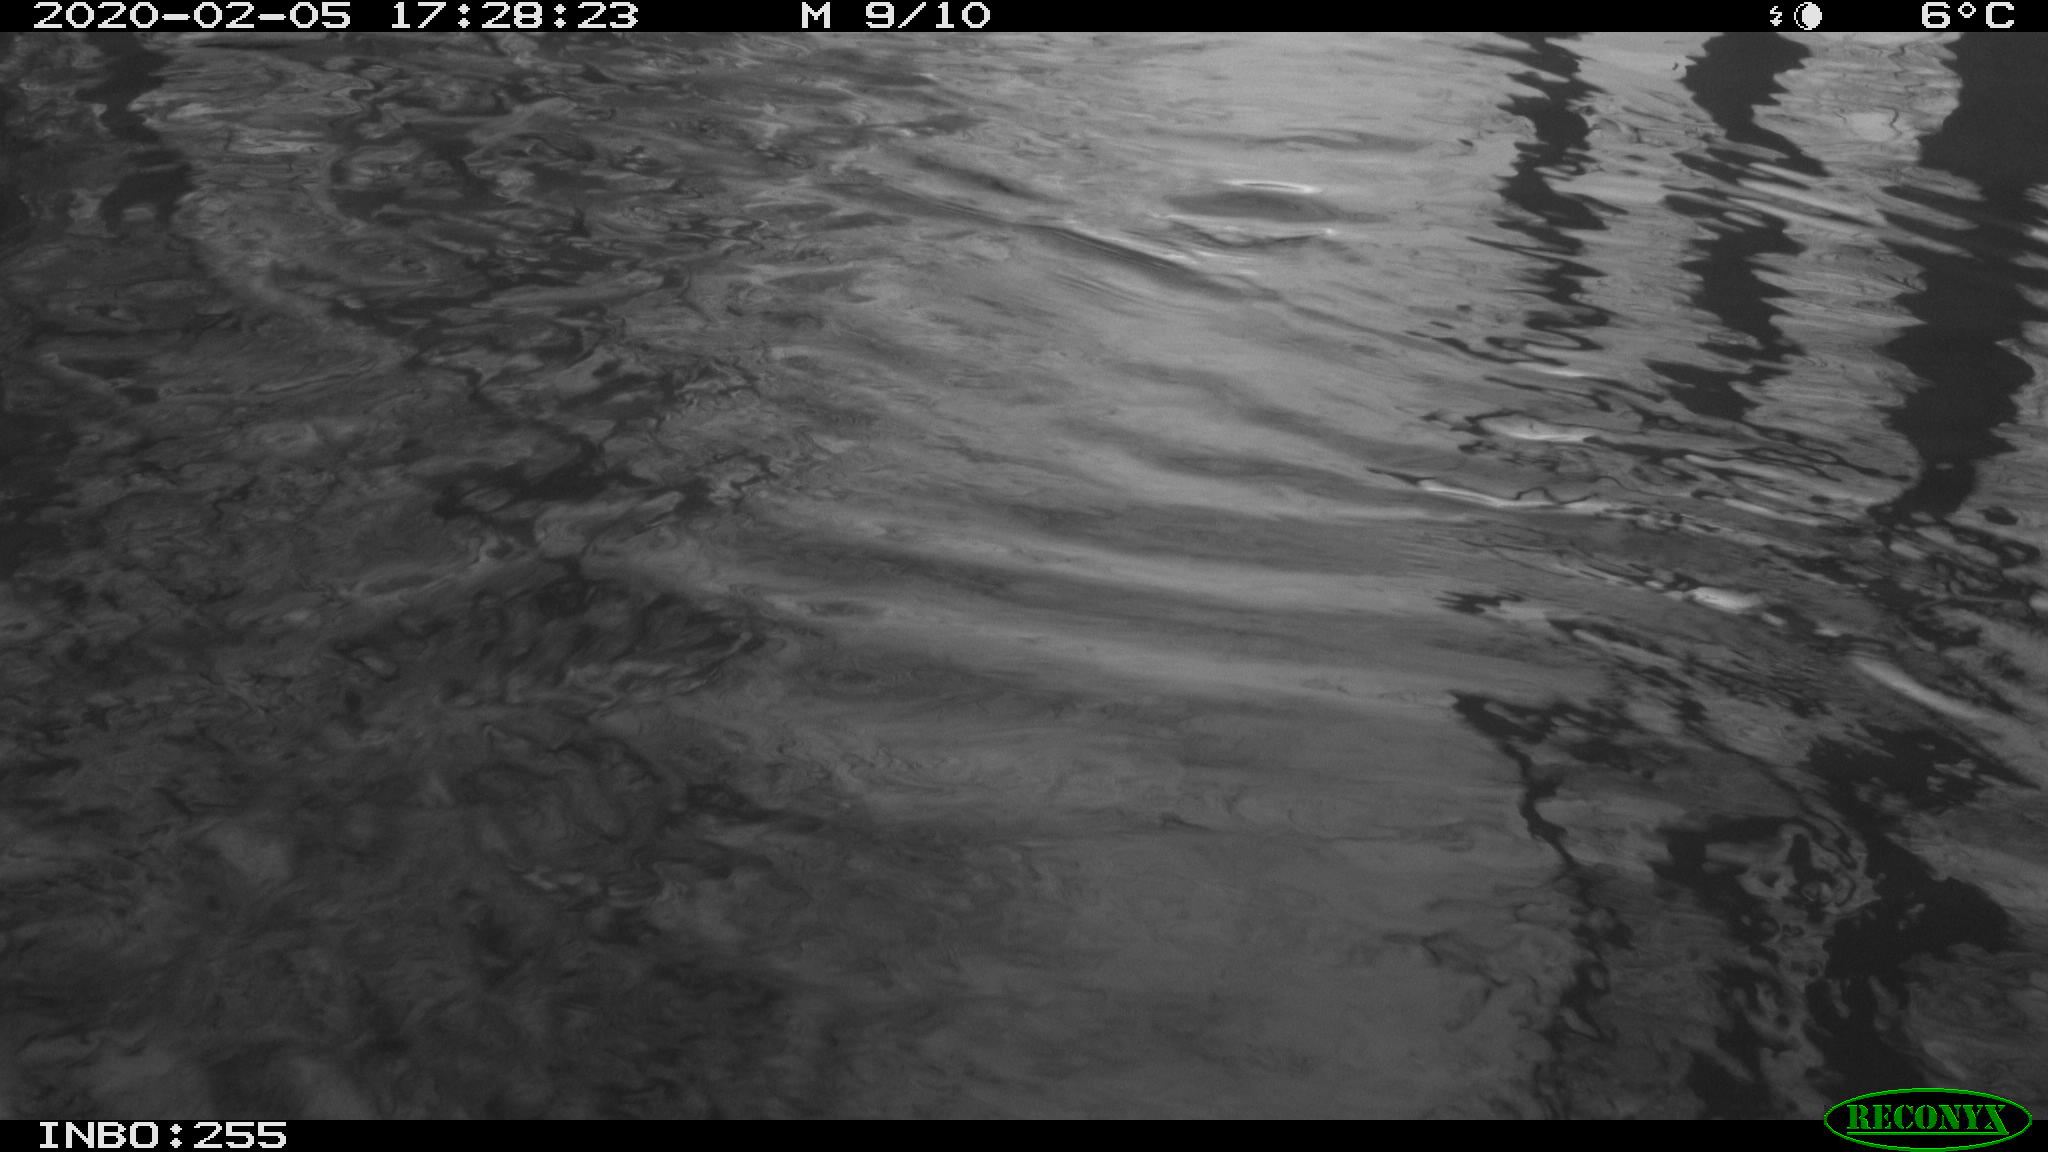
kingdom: Animalia
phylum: Chordata
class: Aves
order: Gruiformes
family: Rallidae
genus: Fulica
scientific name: Fulica atra
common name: Eurasian coot
